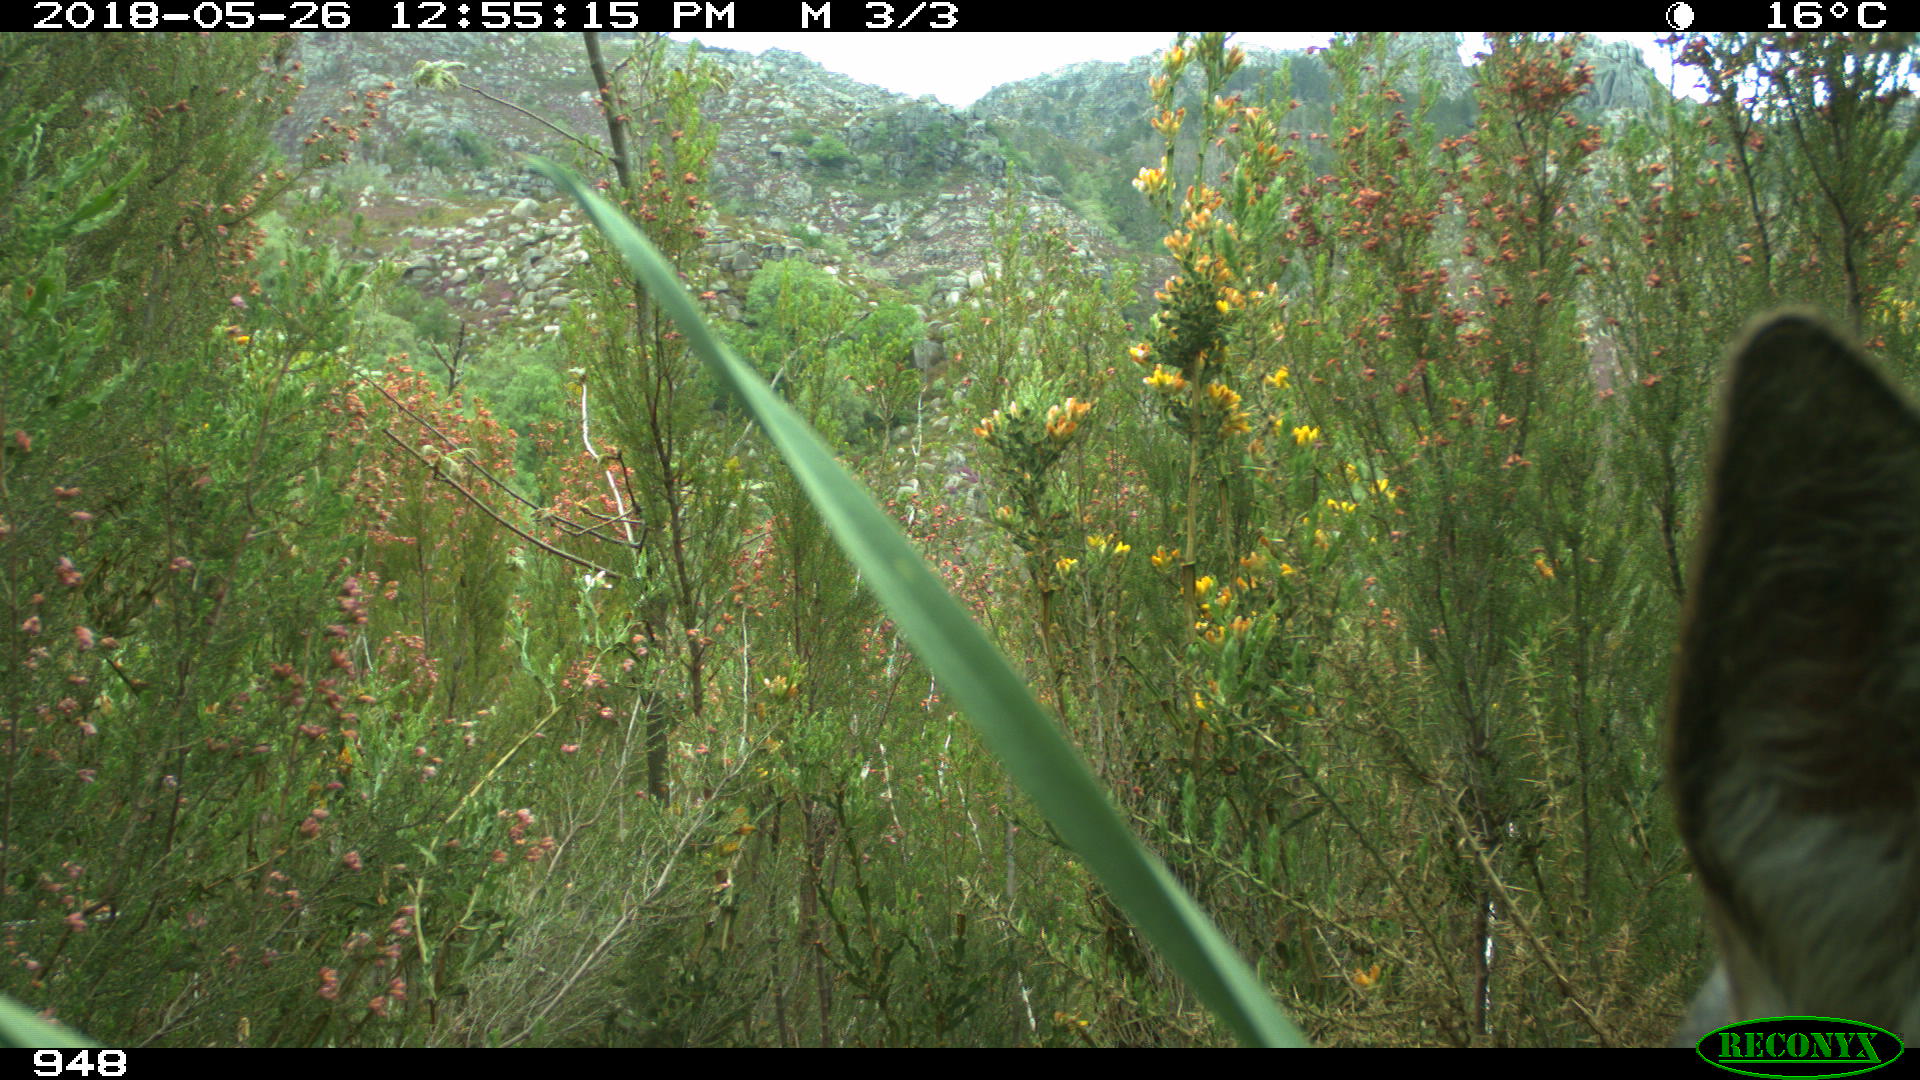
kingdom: Animalia
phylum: Chordata
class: Mammalia
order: Artiodactyla
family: Cervidae
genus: Capreolus
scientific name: Capreolus capreolus
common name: Western roe deer
